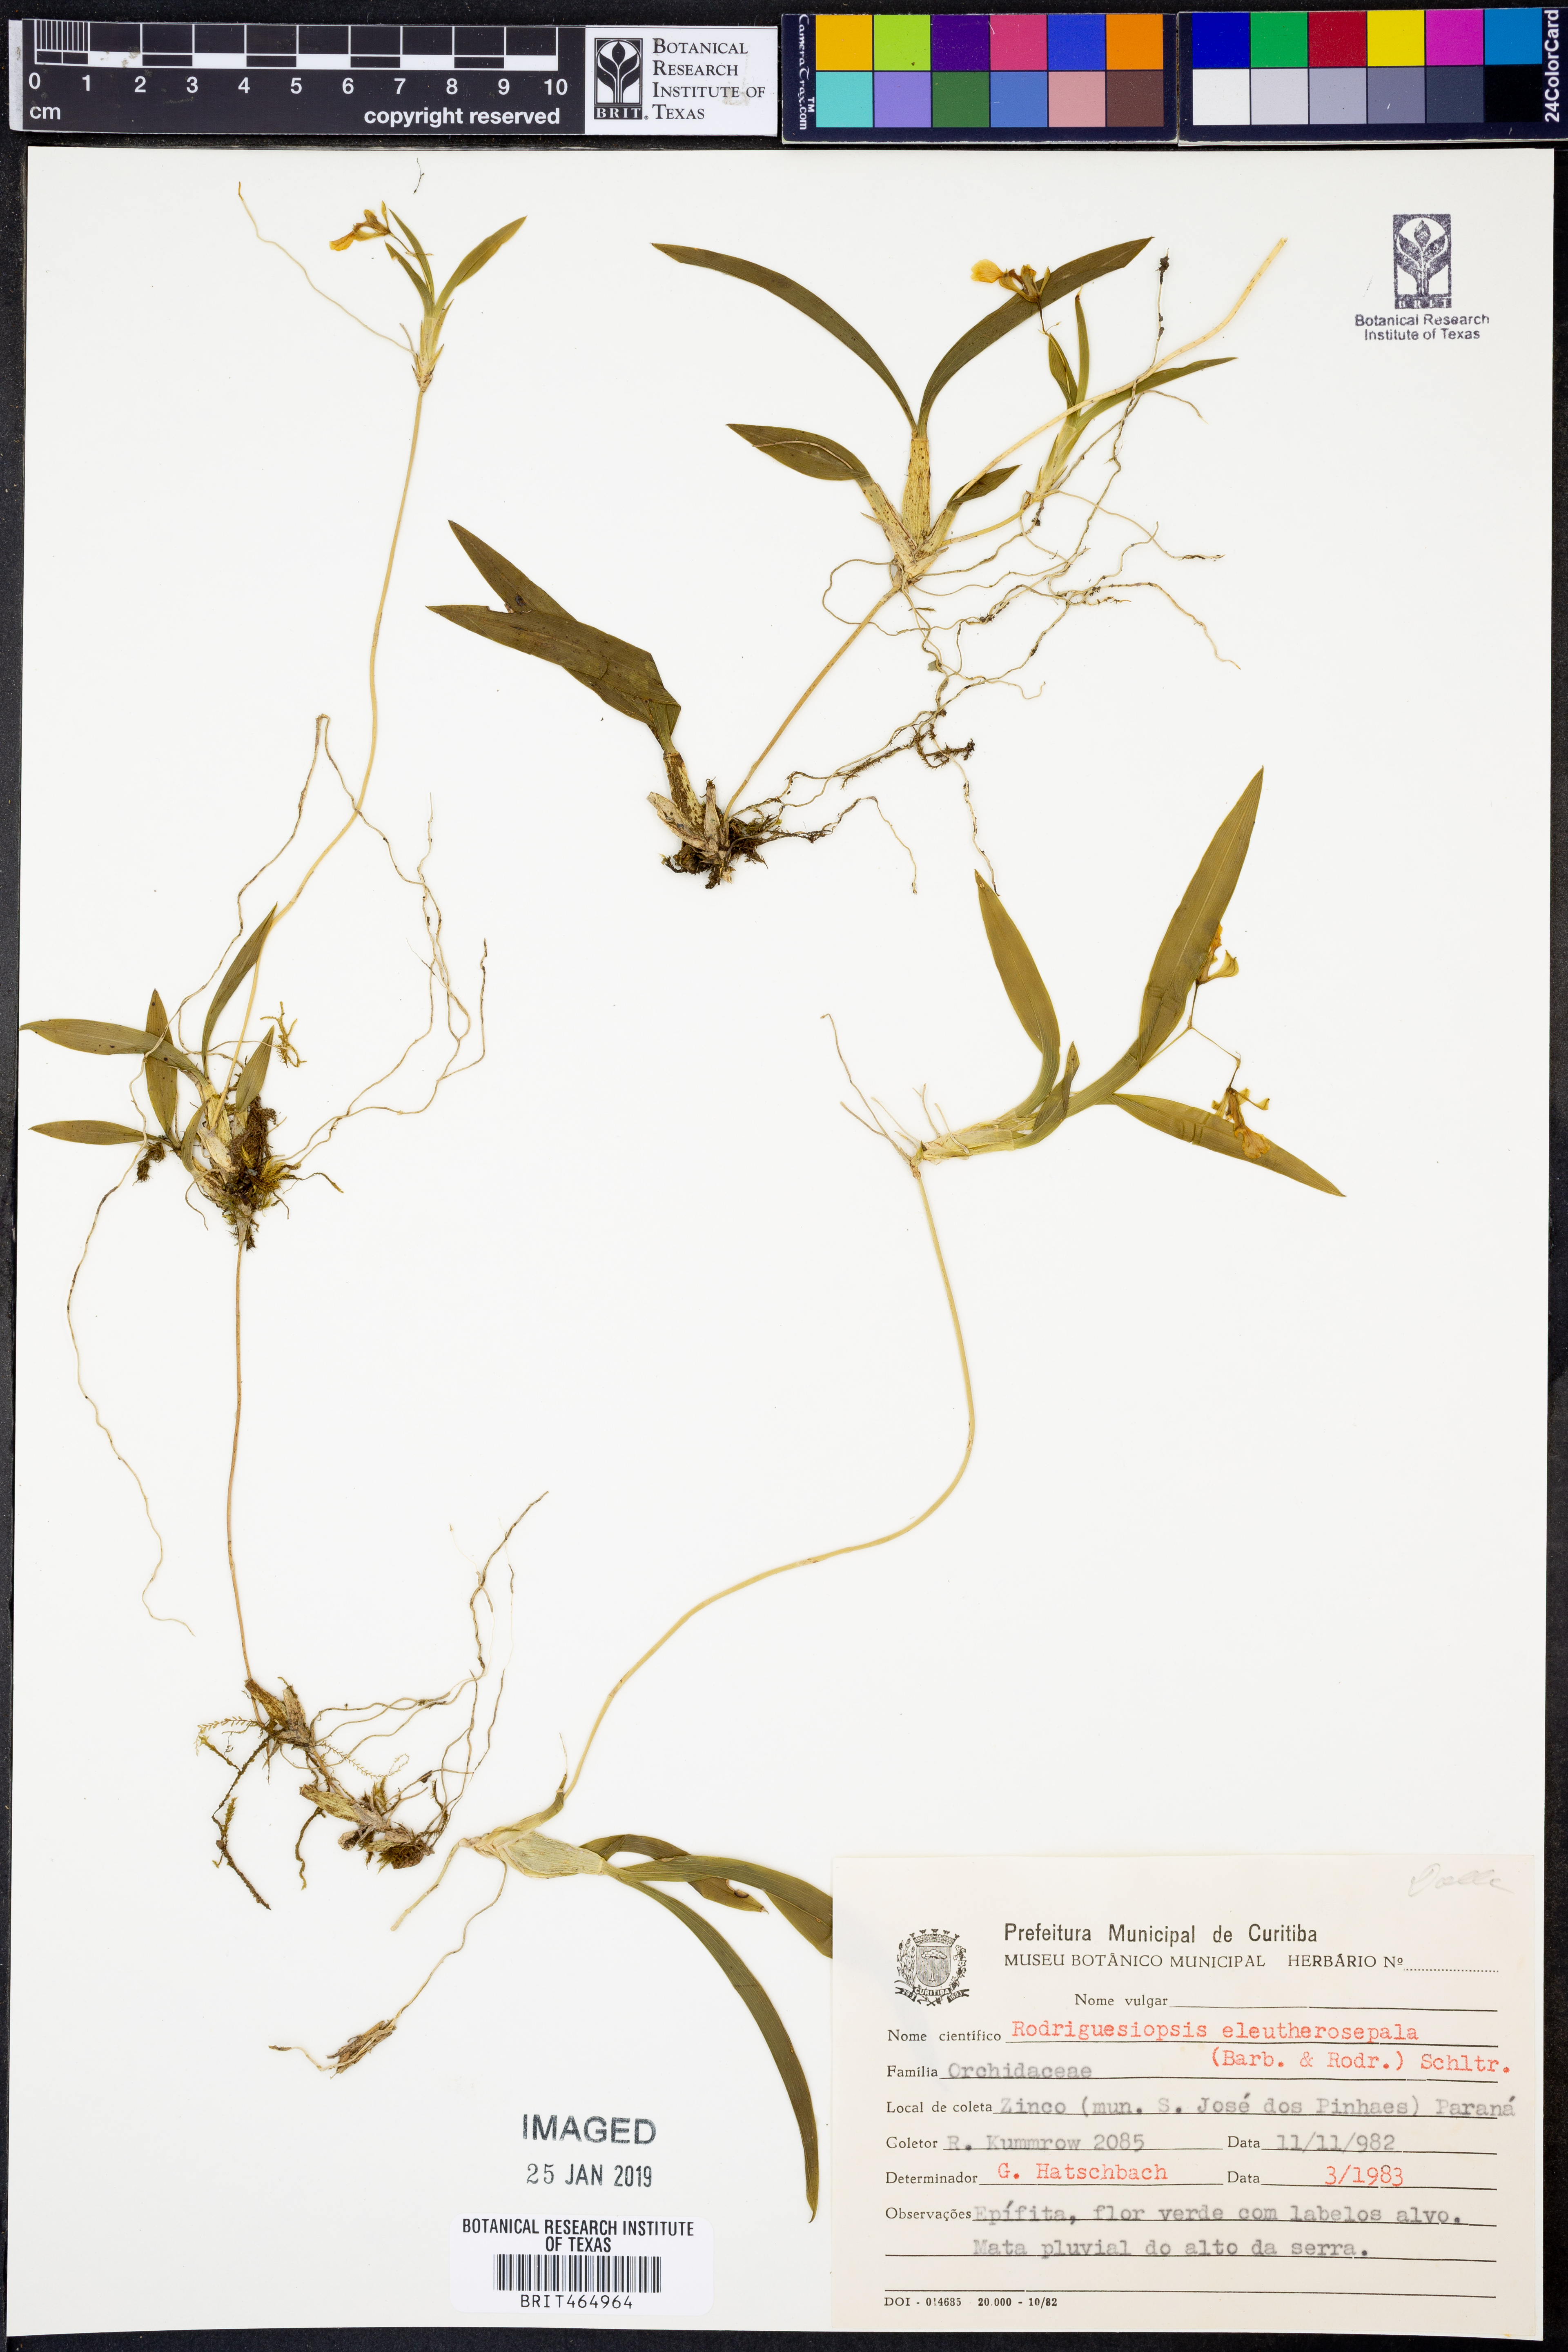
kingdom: Plantae
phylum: Tracheophyta
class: Liliopsida
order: Asparagales
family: Orchidaceae
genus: Gomesa
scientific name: Gomesa eleutherosepala
